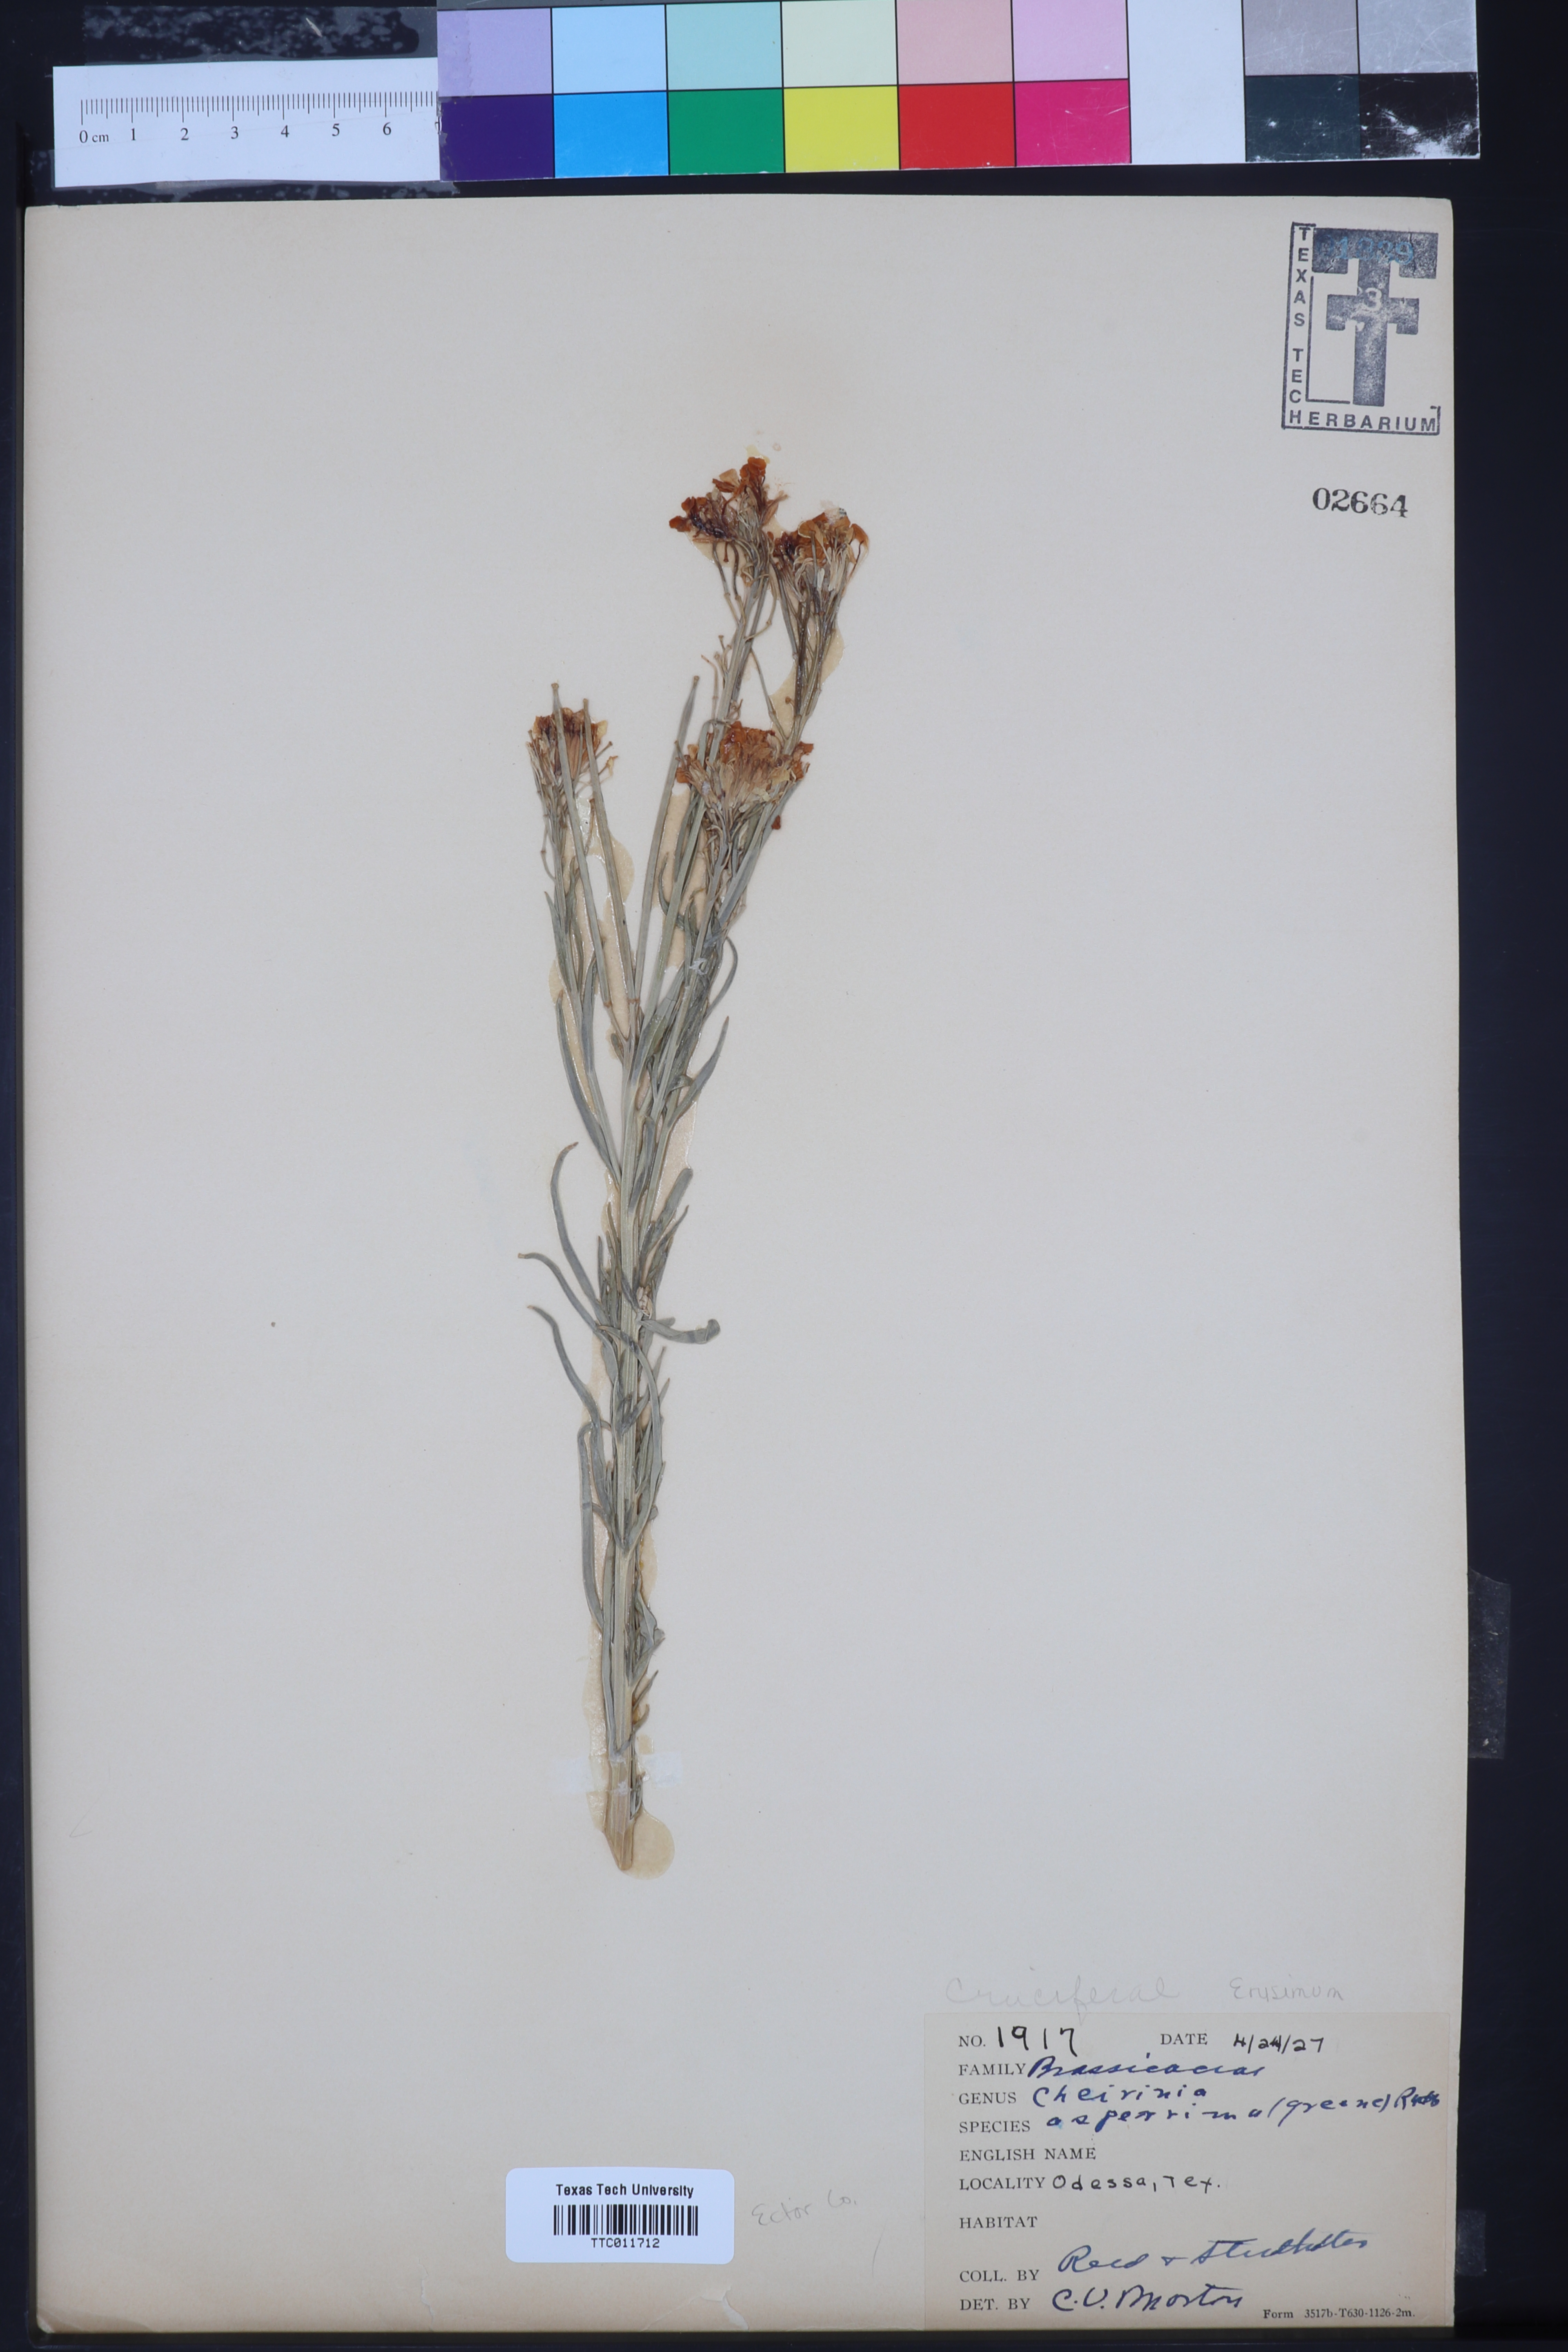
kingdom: Plantae
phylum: Tracheophyta
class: Magnoliopsida
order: Brassicales
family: Brassicaceae
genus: Erysimum
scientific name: Erysimum capitatum
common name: Western wallflower
